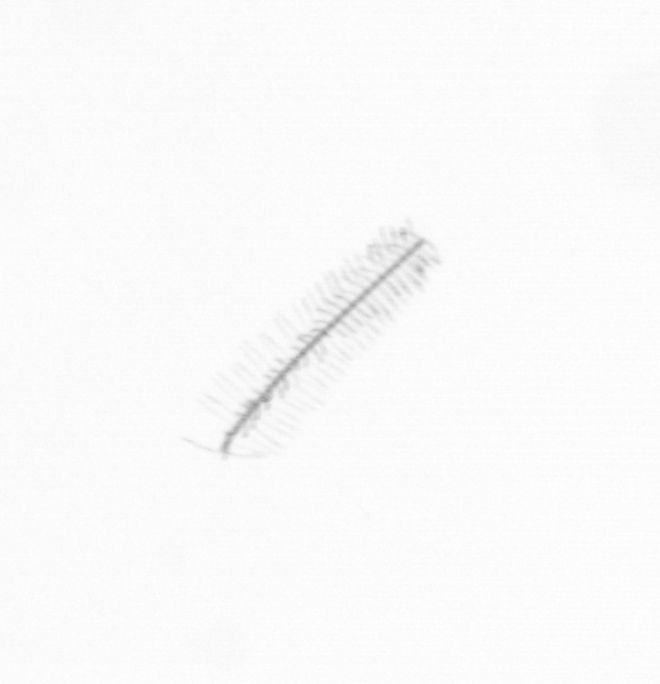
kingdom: Chromista
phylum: Ochrophyta
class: Bacillariophyceae
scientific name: Bacillariophyceae
